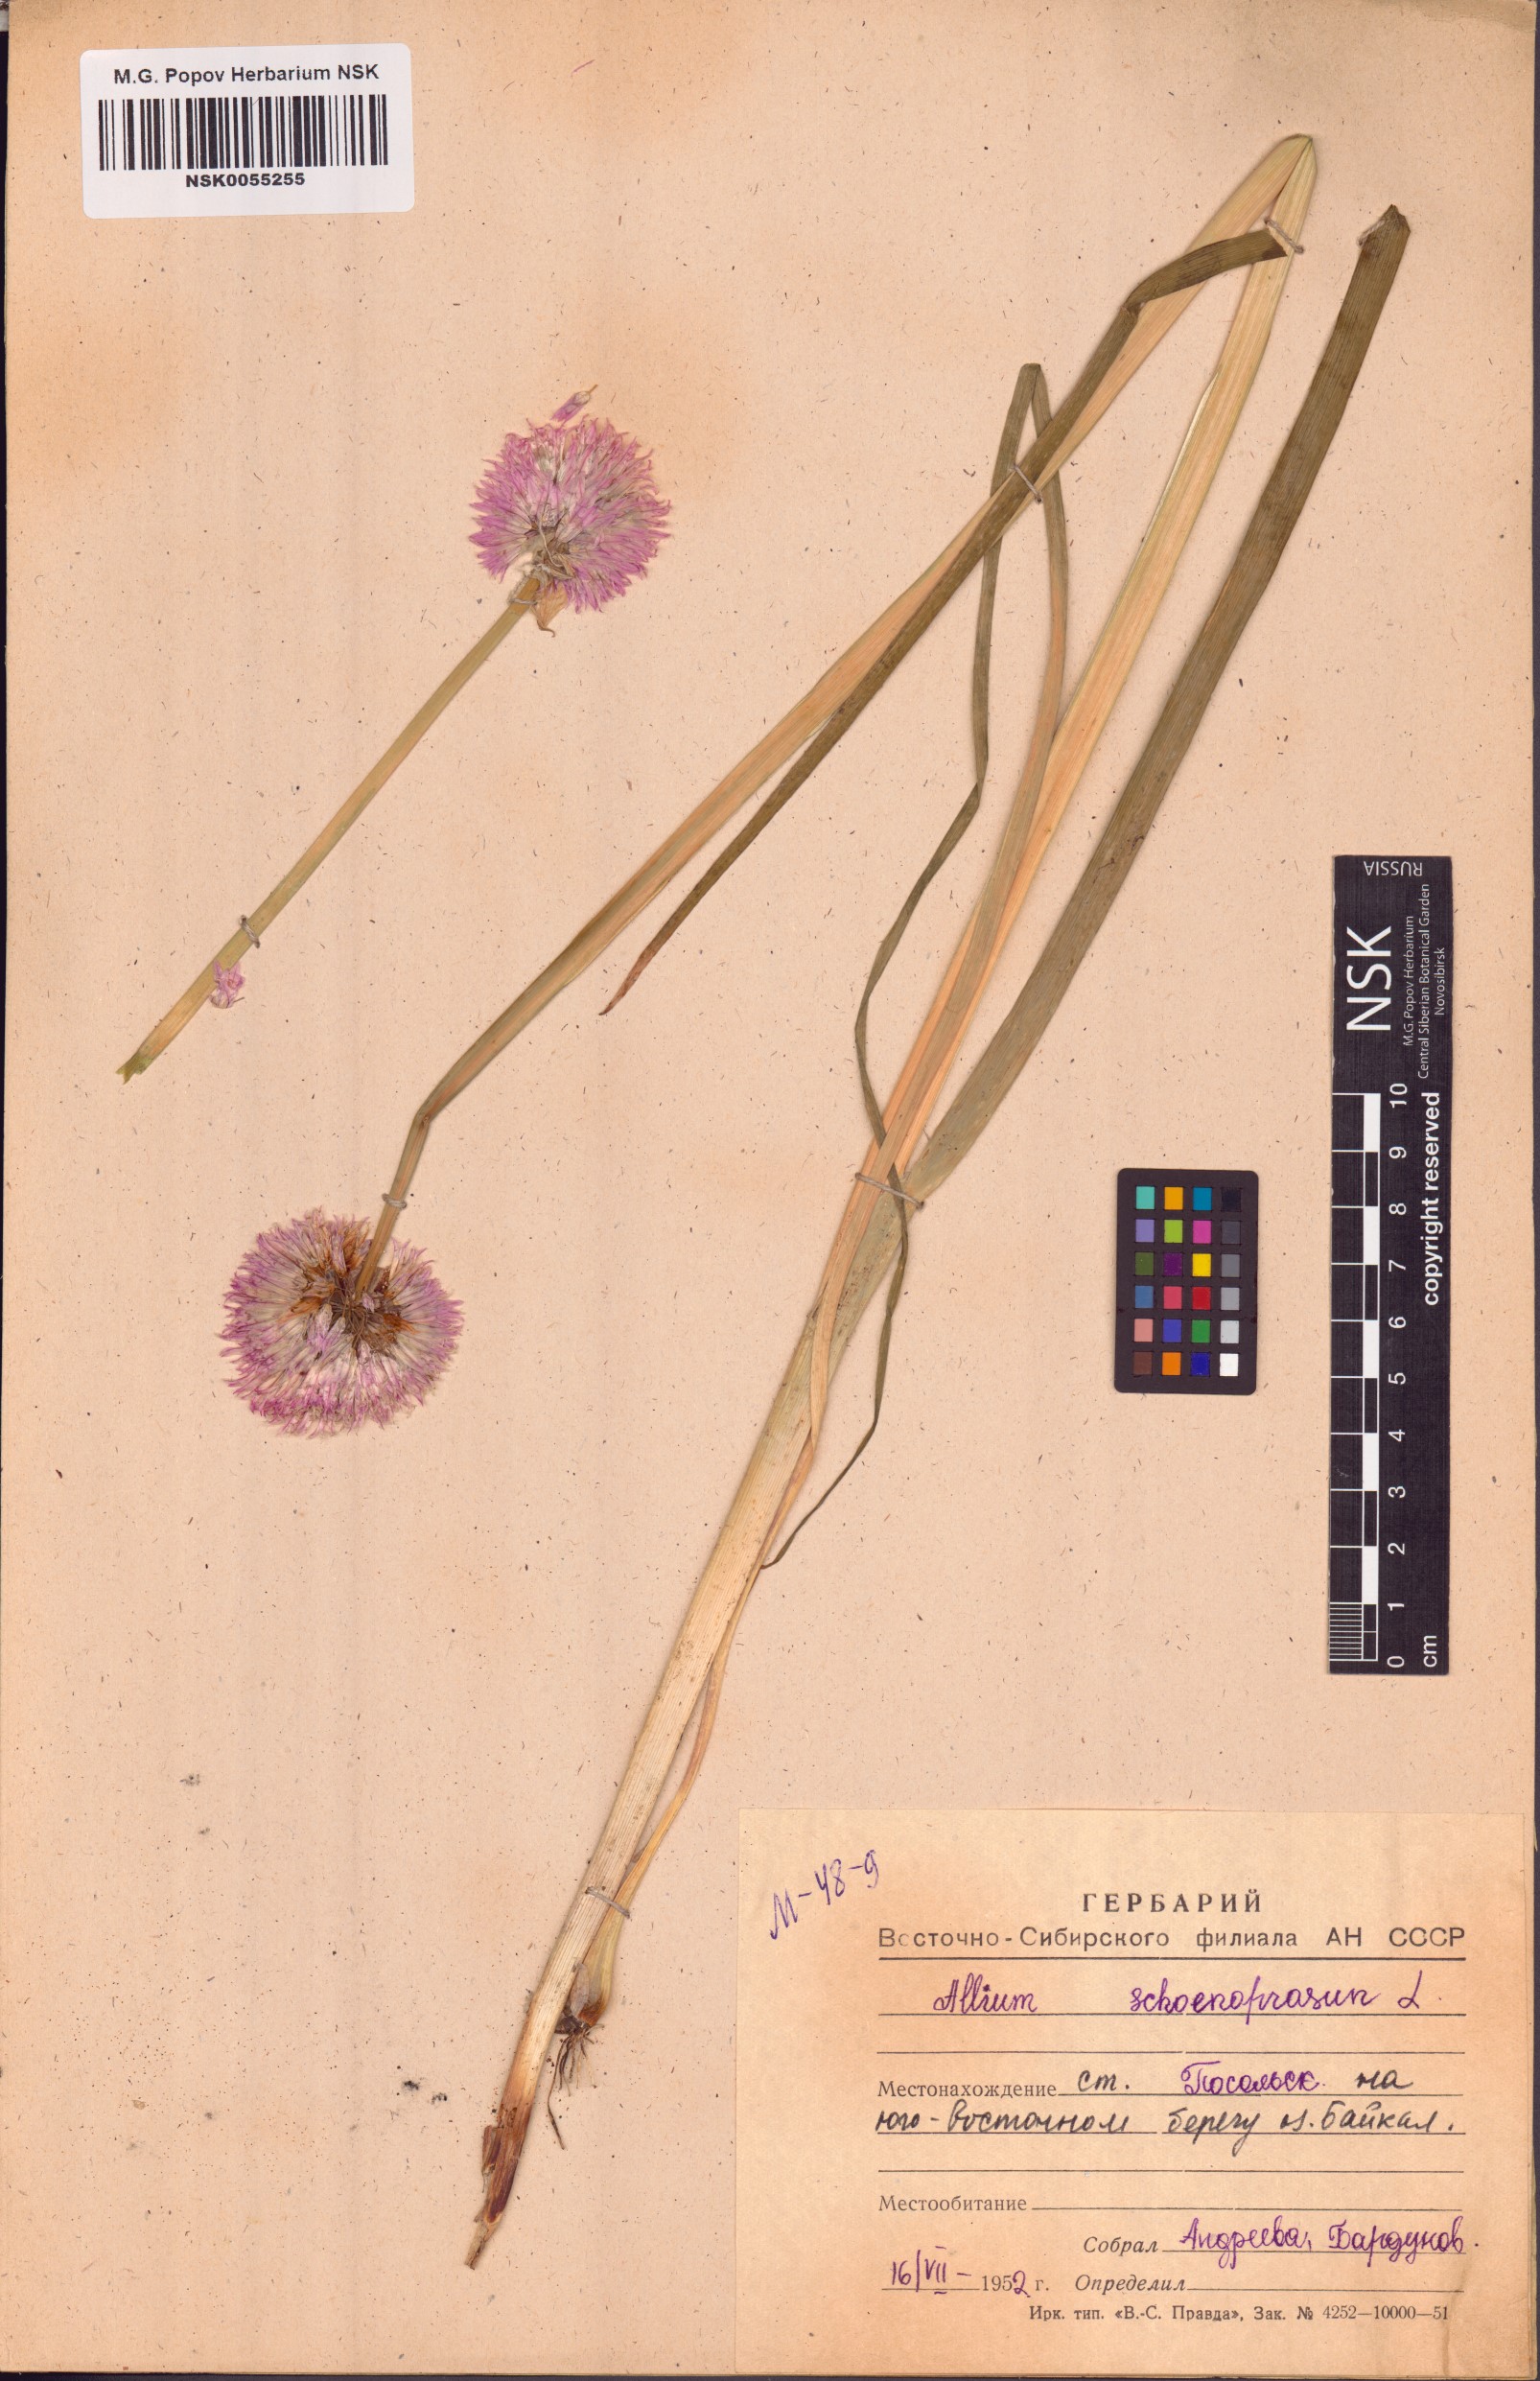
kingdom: Plantae
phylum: Tracheophyta
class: Liliopsida
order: Asparagales
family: Amaryllidaceae
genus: Allium
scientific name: Allium schoenoprasum
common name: Chives
